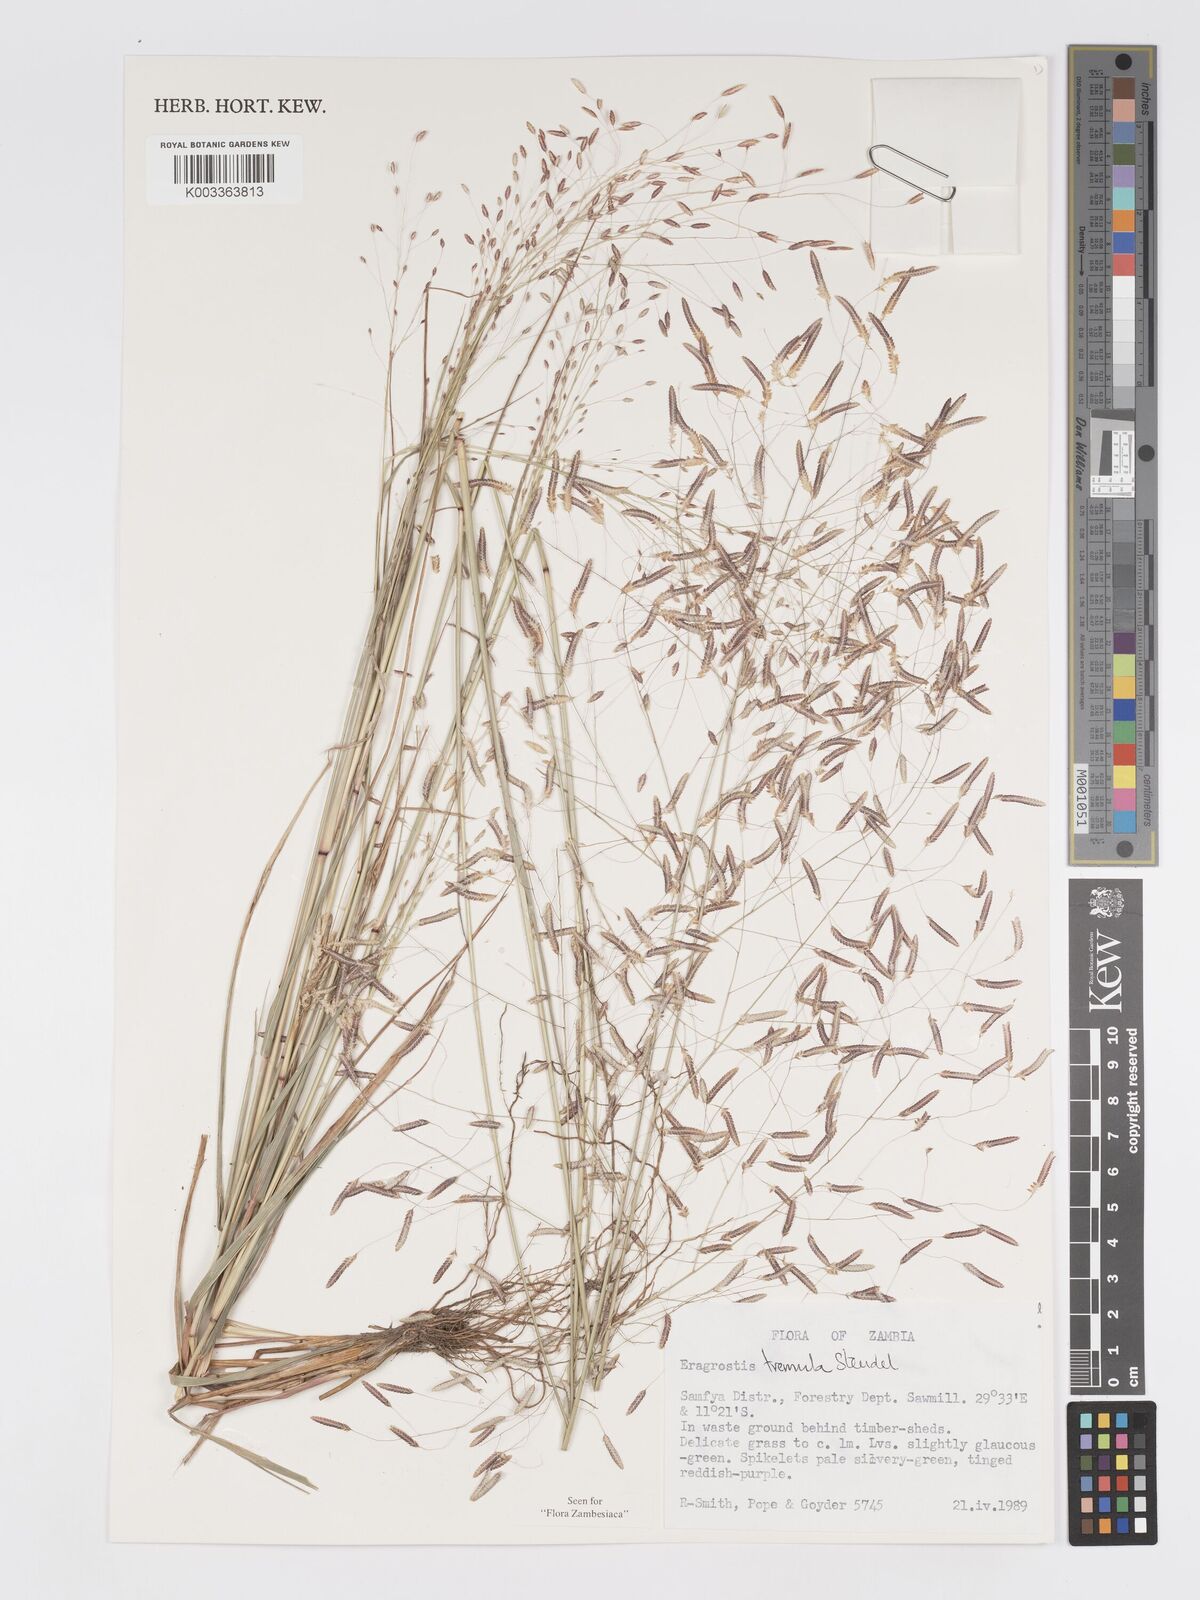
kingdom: Plantae
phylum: Tracheophyta
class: Liliopsida
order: Poales
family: Poaceae
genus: Eragrostis
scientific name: Eragrostis tremula
